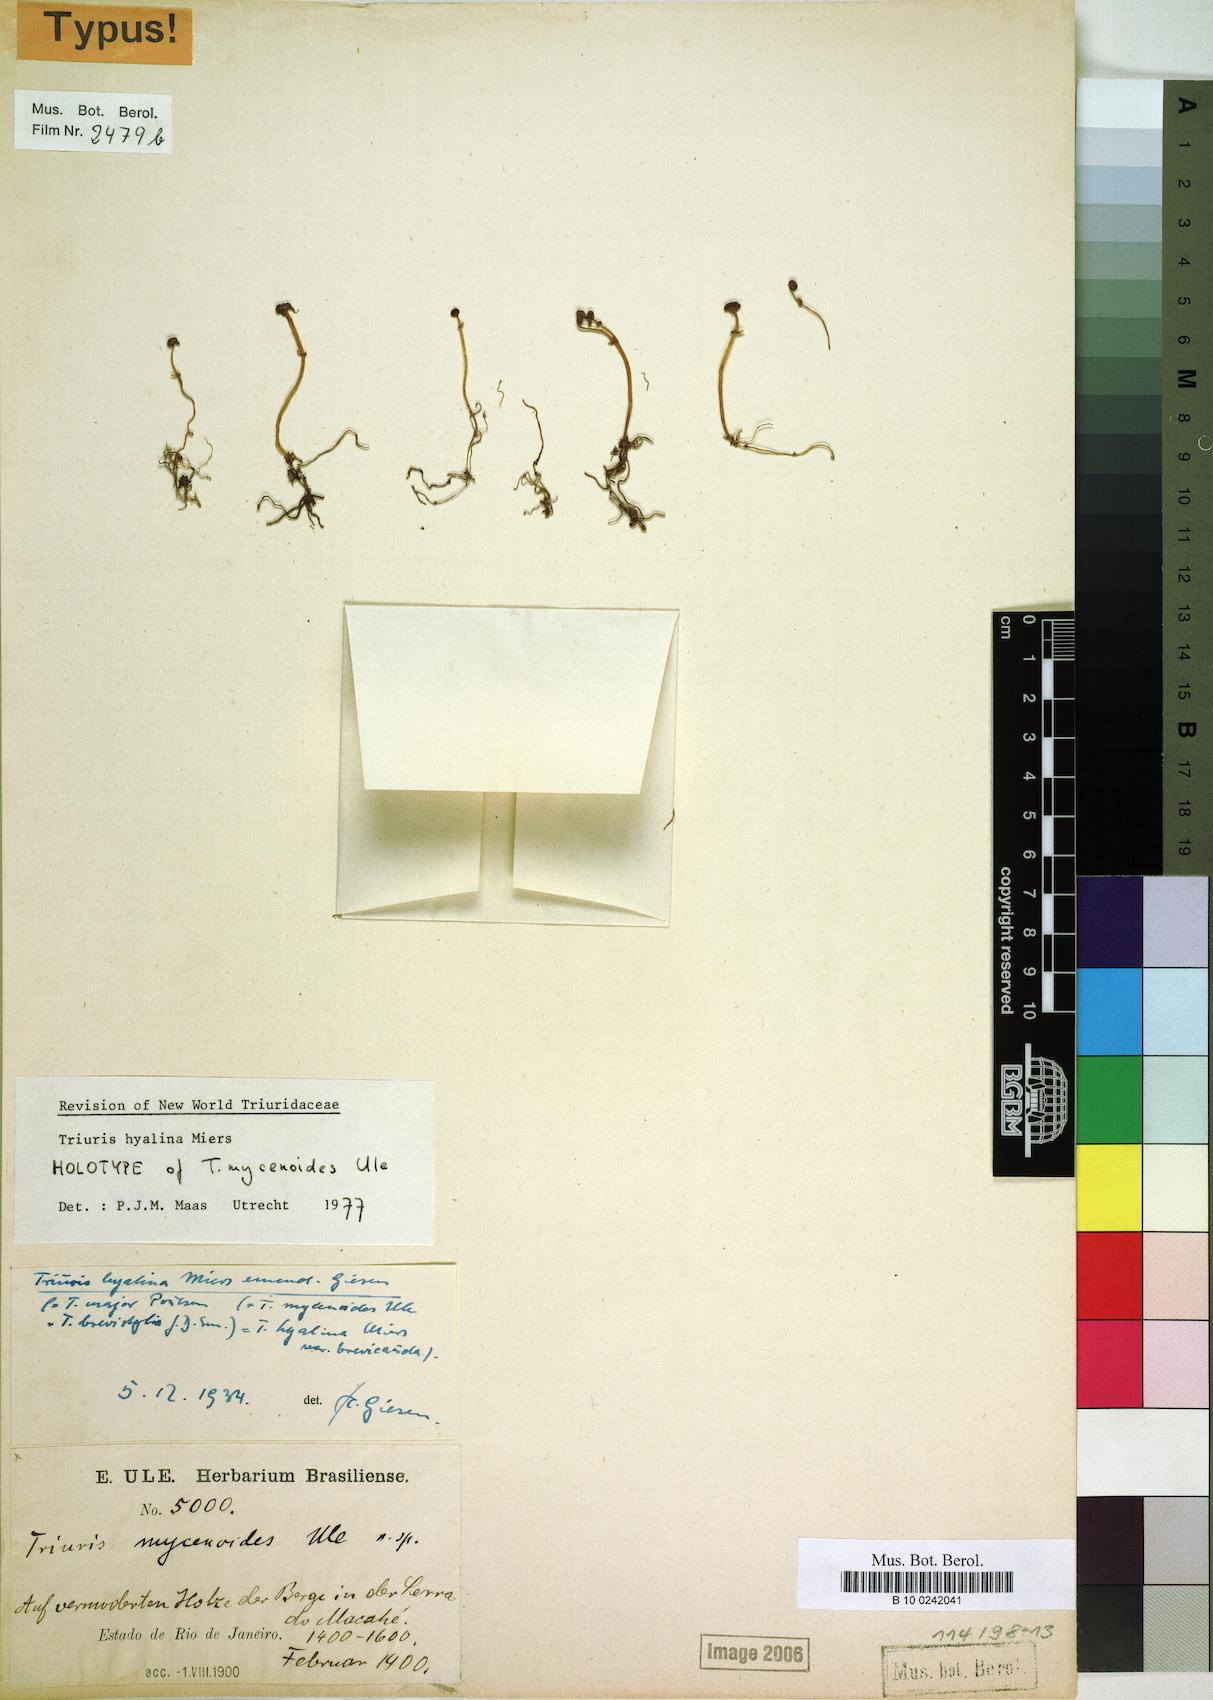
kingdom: Plantae
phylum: Tracheophyta
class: Liliopsida
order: Pandanales
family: Triuridaceae
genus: Triuris
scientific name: Triuris hyalina
